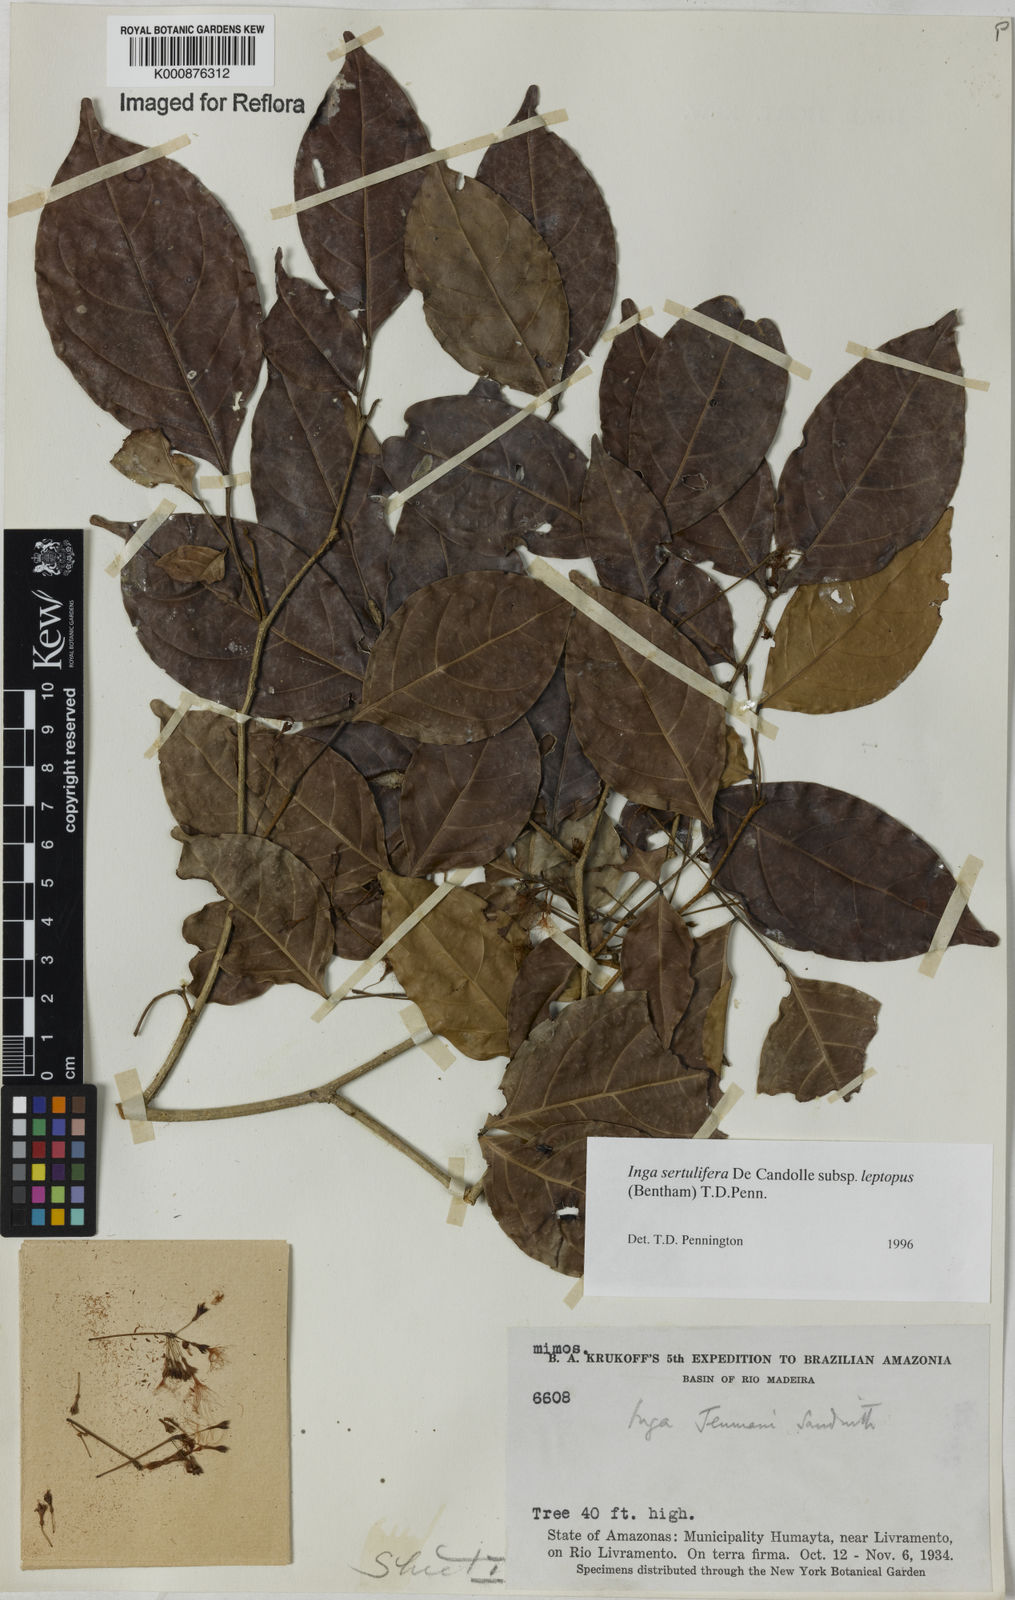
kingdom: Plantae
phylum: Tracheophyta
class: Magnoliopsida
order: Fabales
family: Fabaceae
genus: Inga
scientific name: Inga sertulifera
